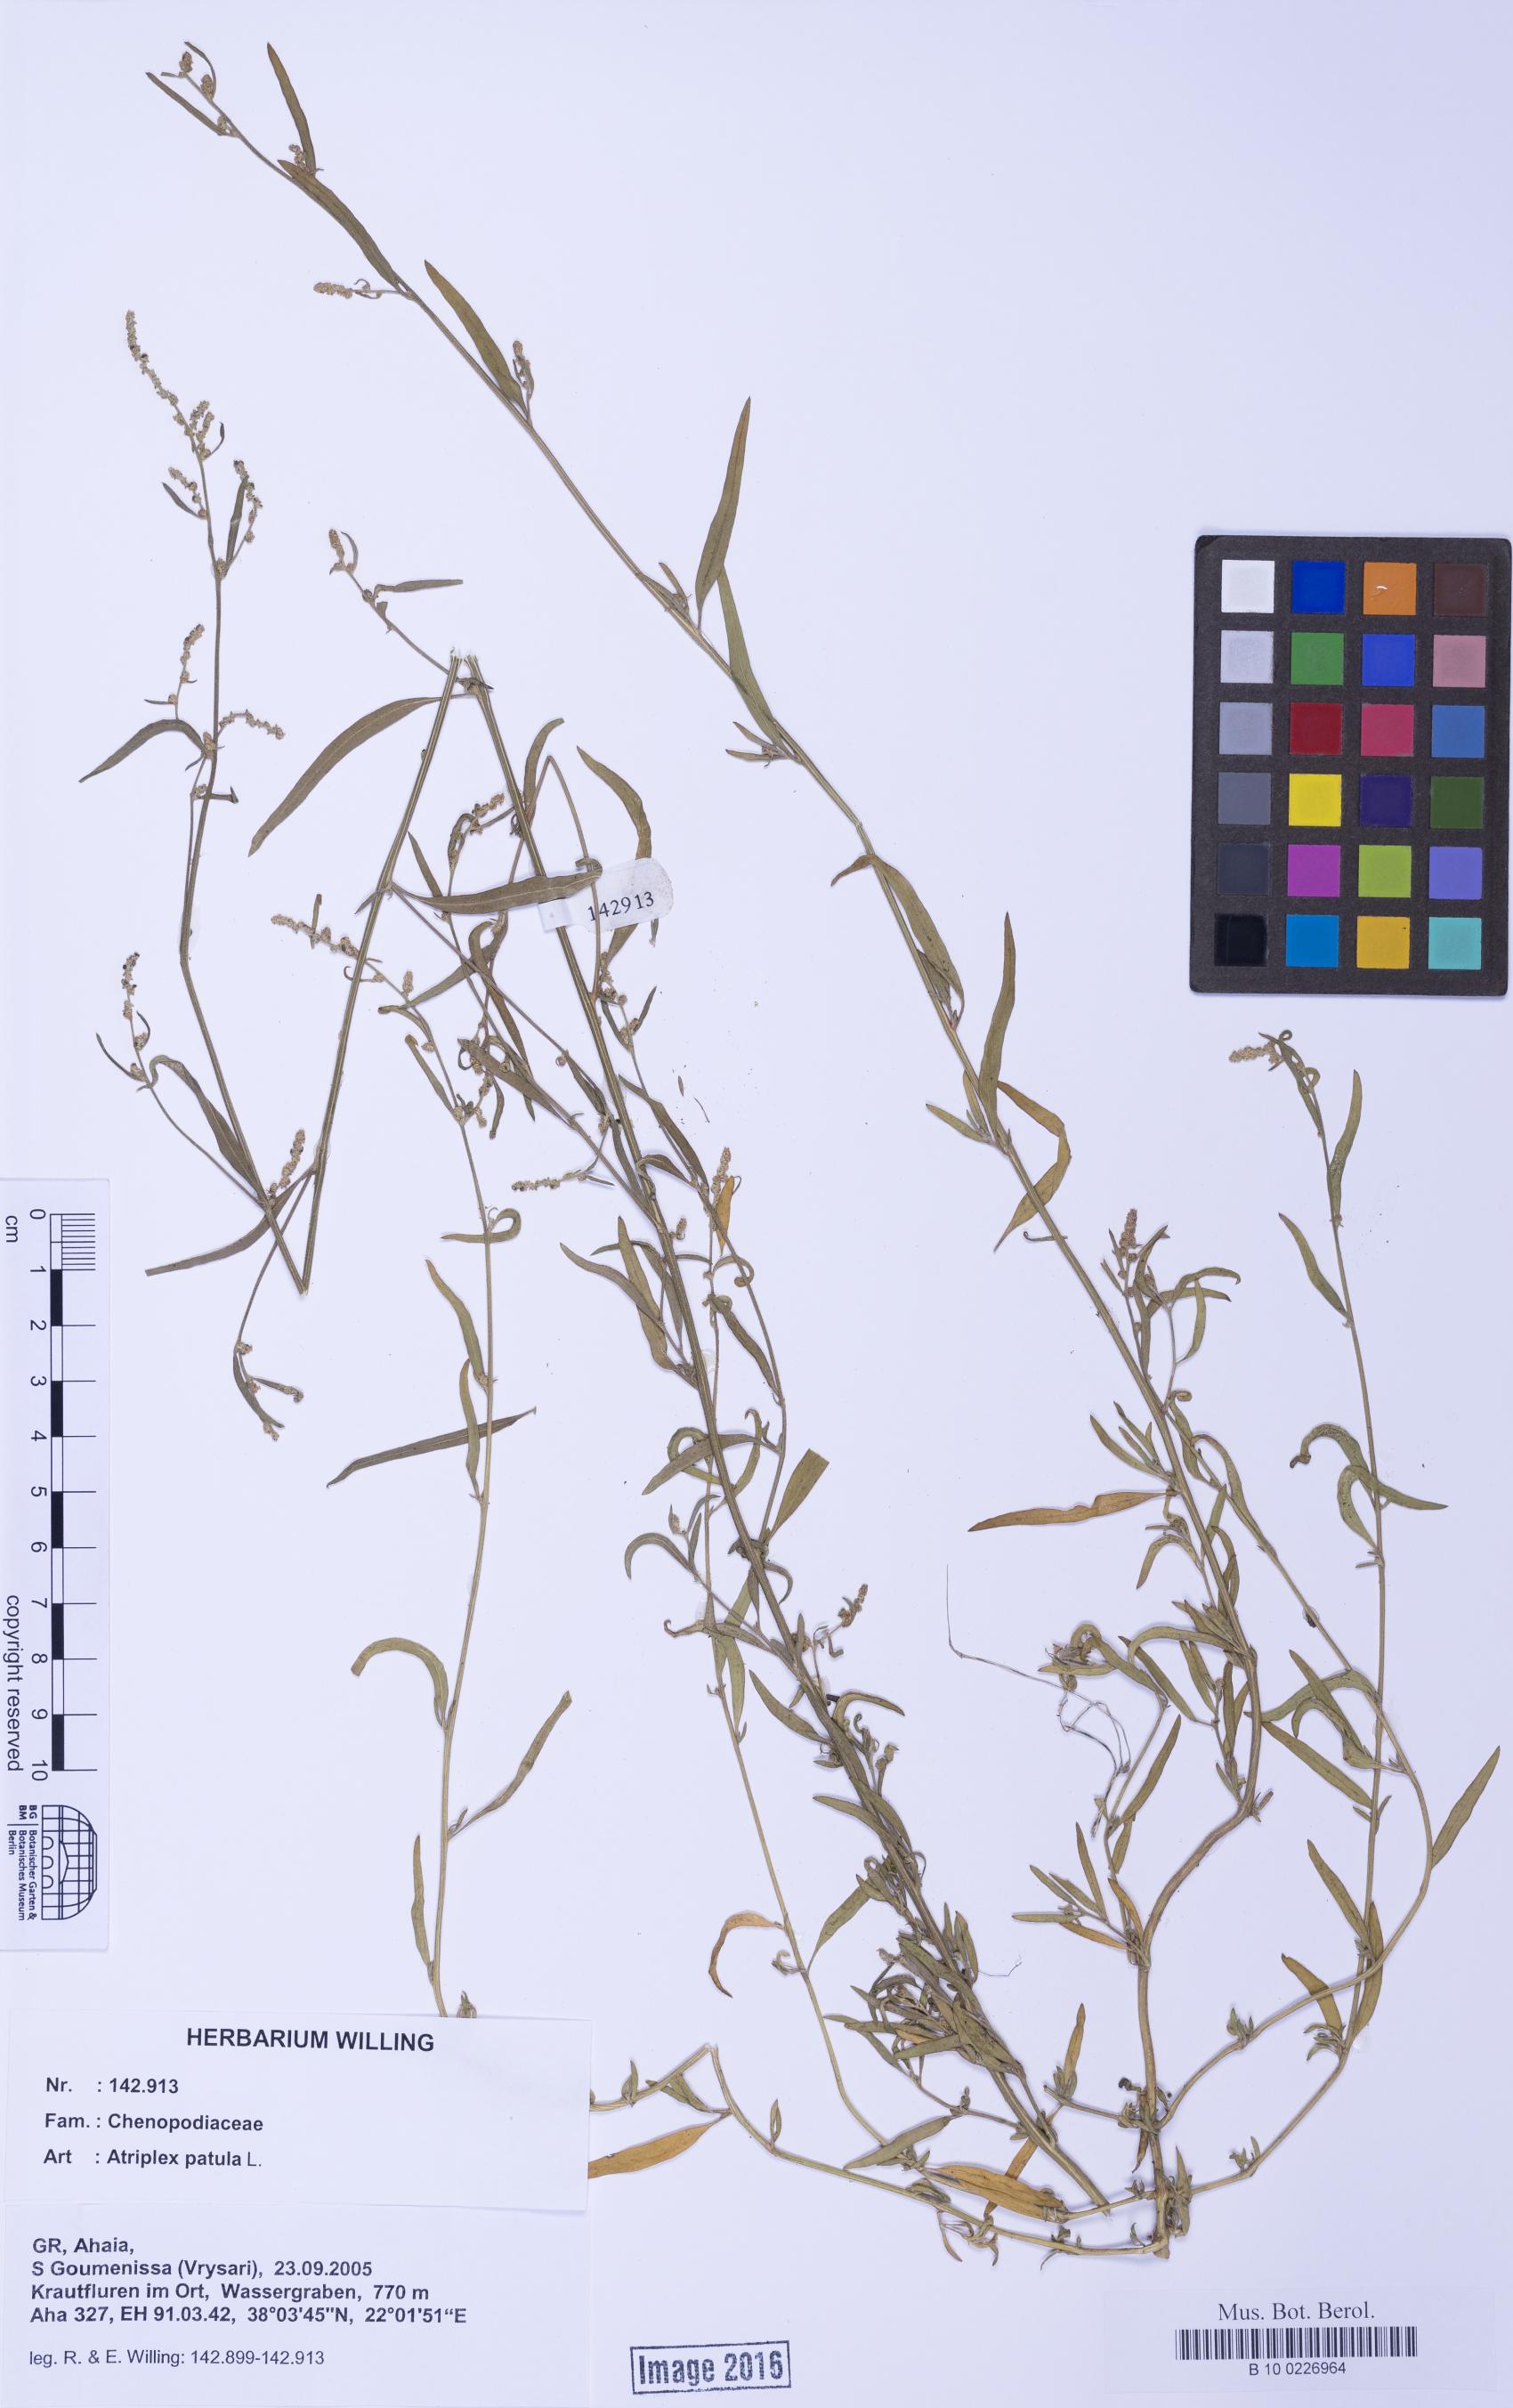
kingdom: Plantae
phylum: Tracheophyta
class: Magnoliopsida
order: Caryophyllales
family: Amaranthaceae
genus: Atriplex
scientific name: Atriplex patula
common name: Common orache
